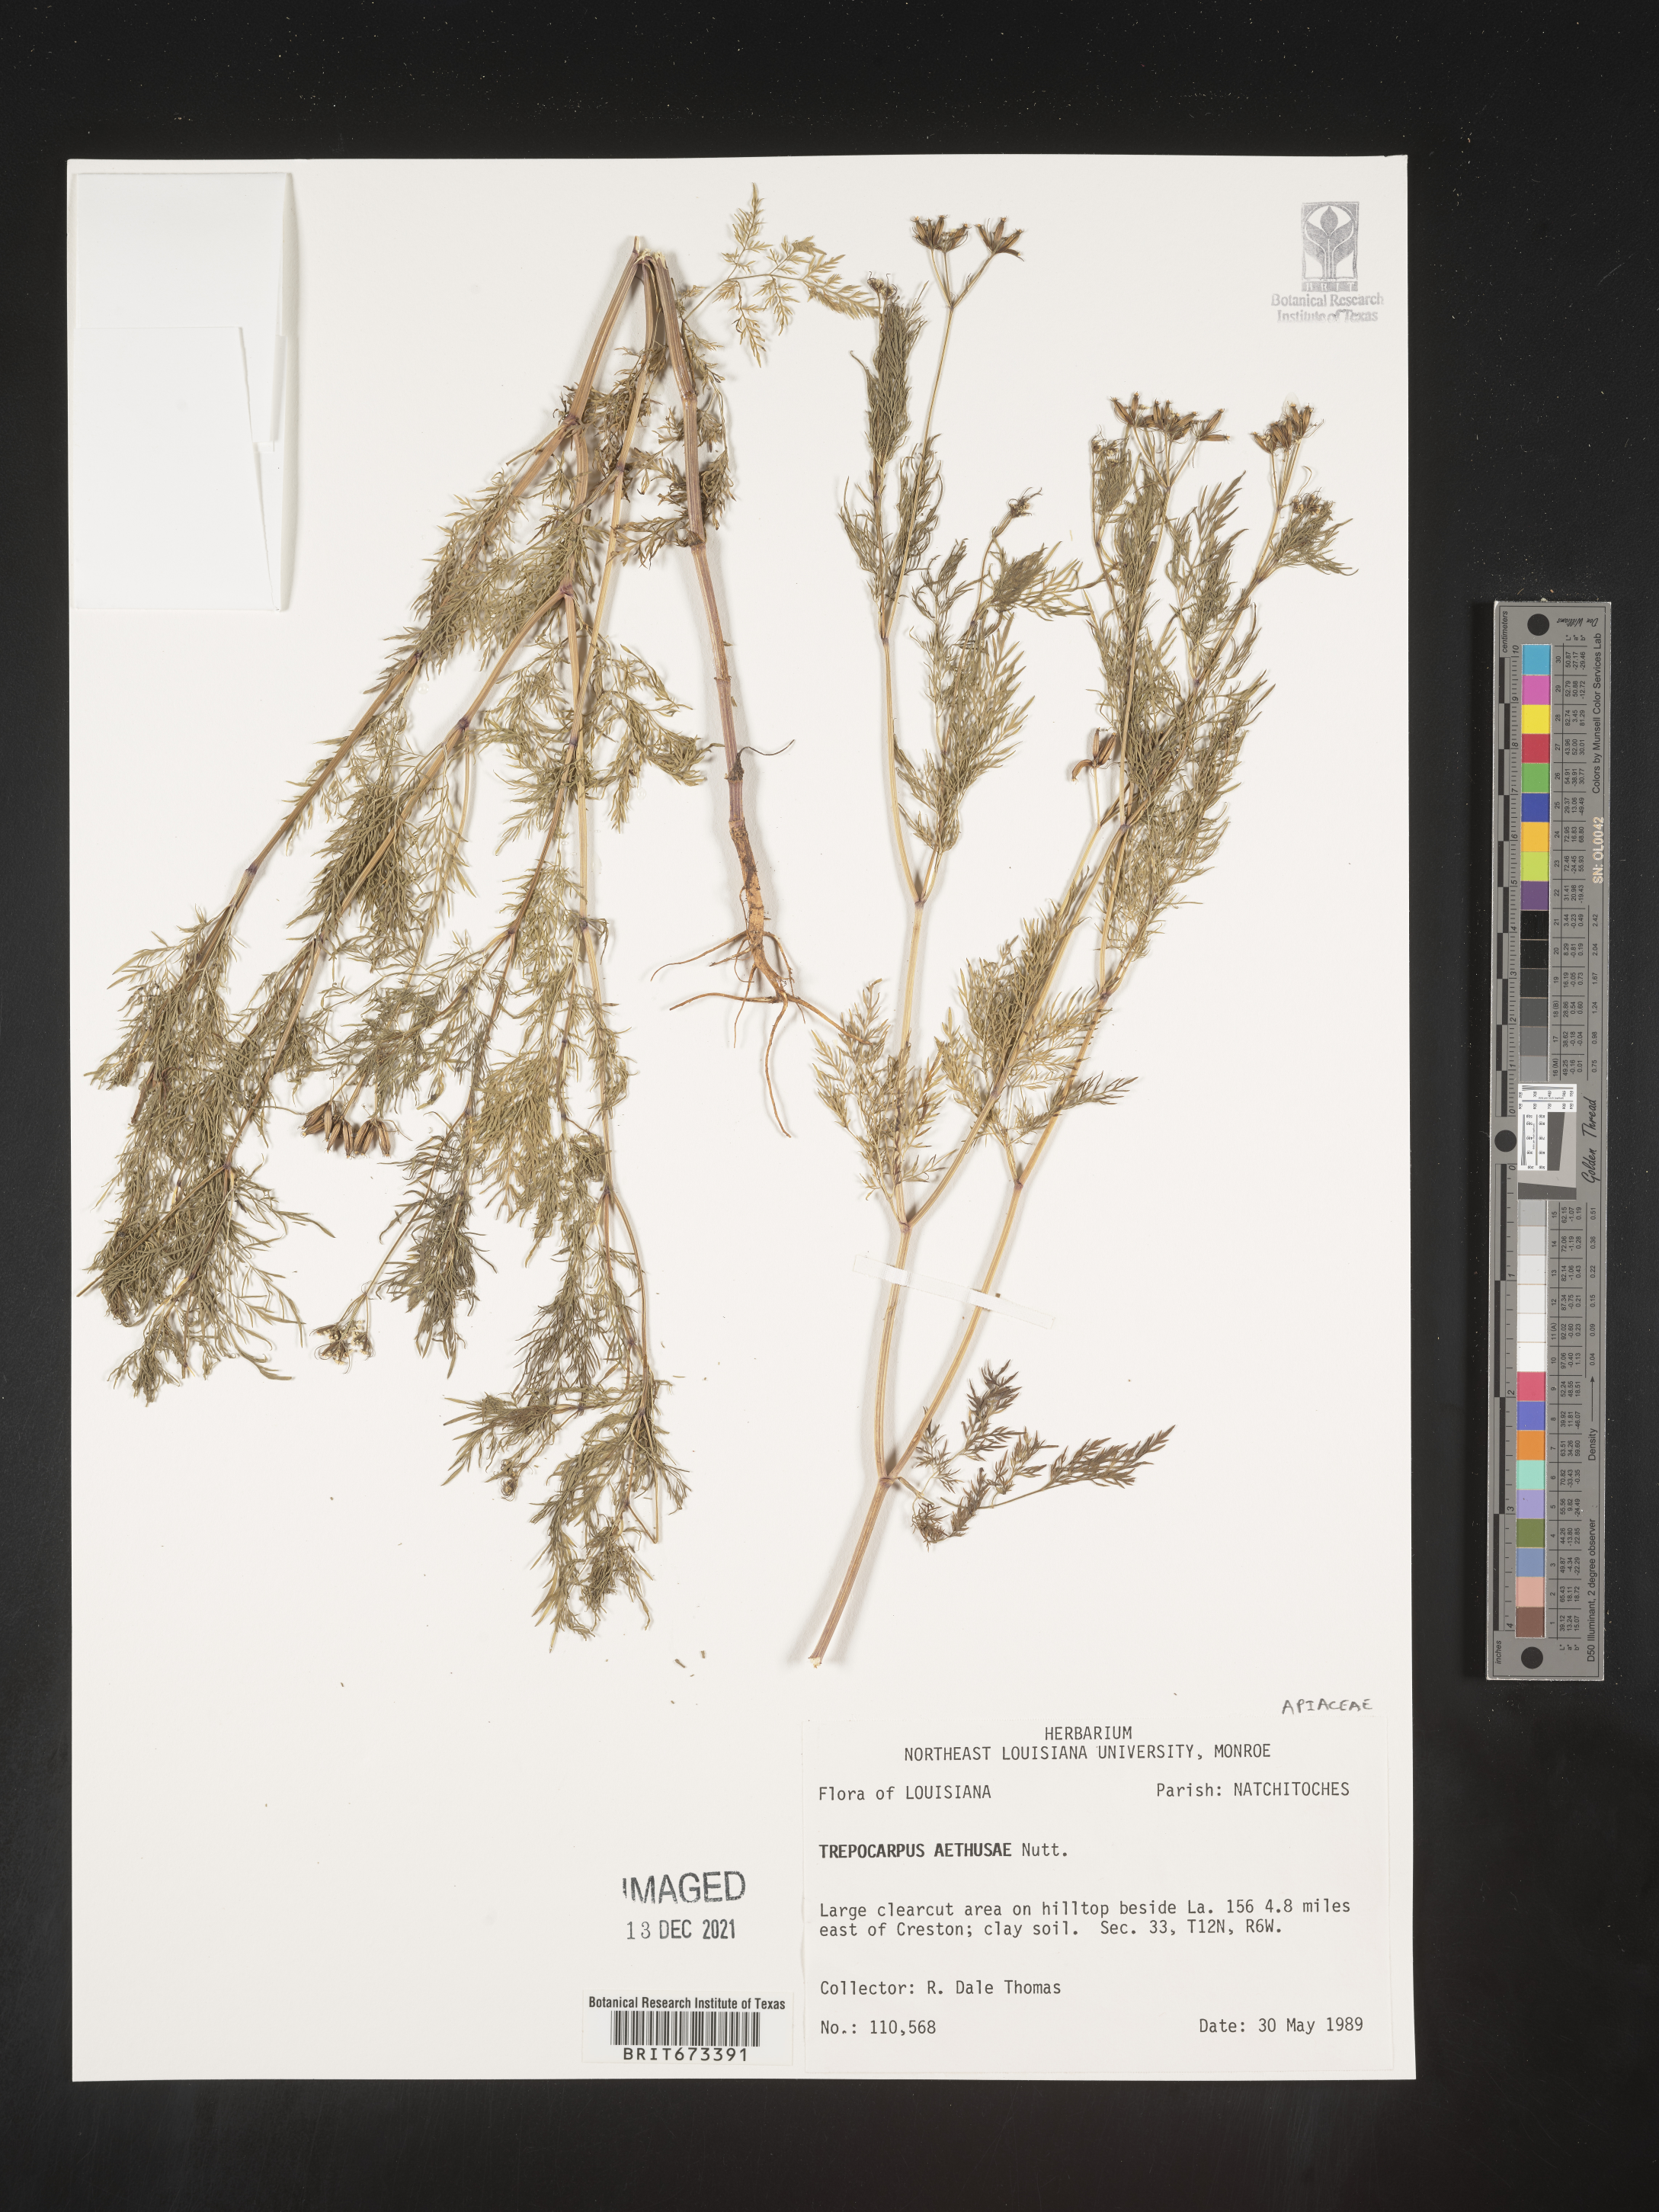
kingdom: Plantae
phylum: Tracheophyta
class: Magnoliopsida
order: Apiales
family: Apiaceae
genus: Trepocarpus
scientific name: Trepocarpus aethusae
